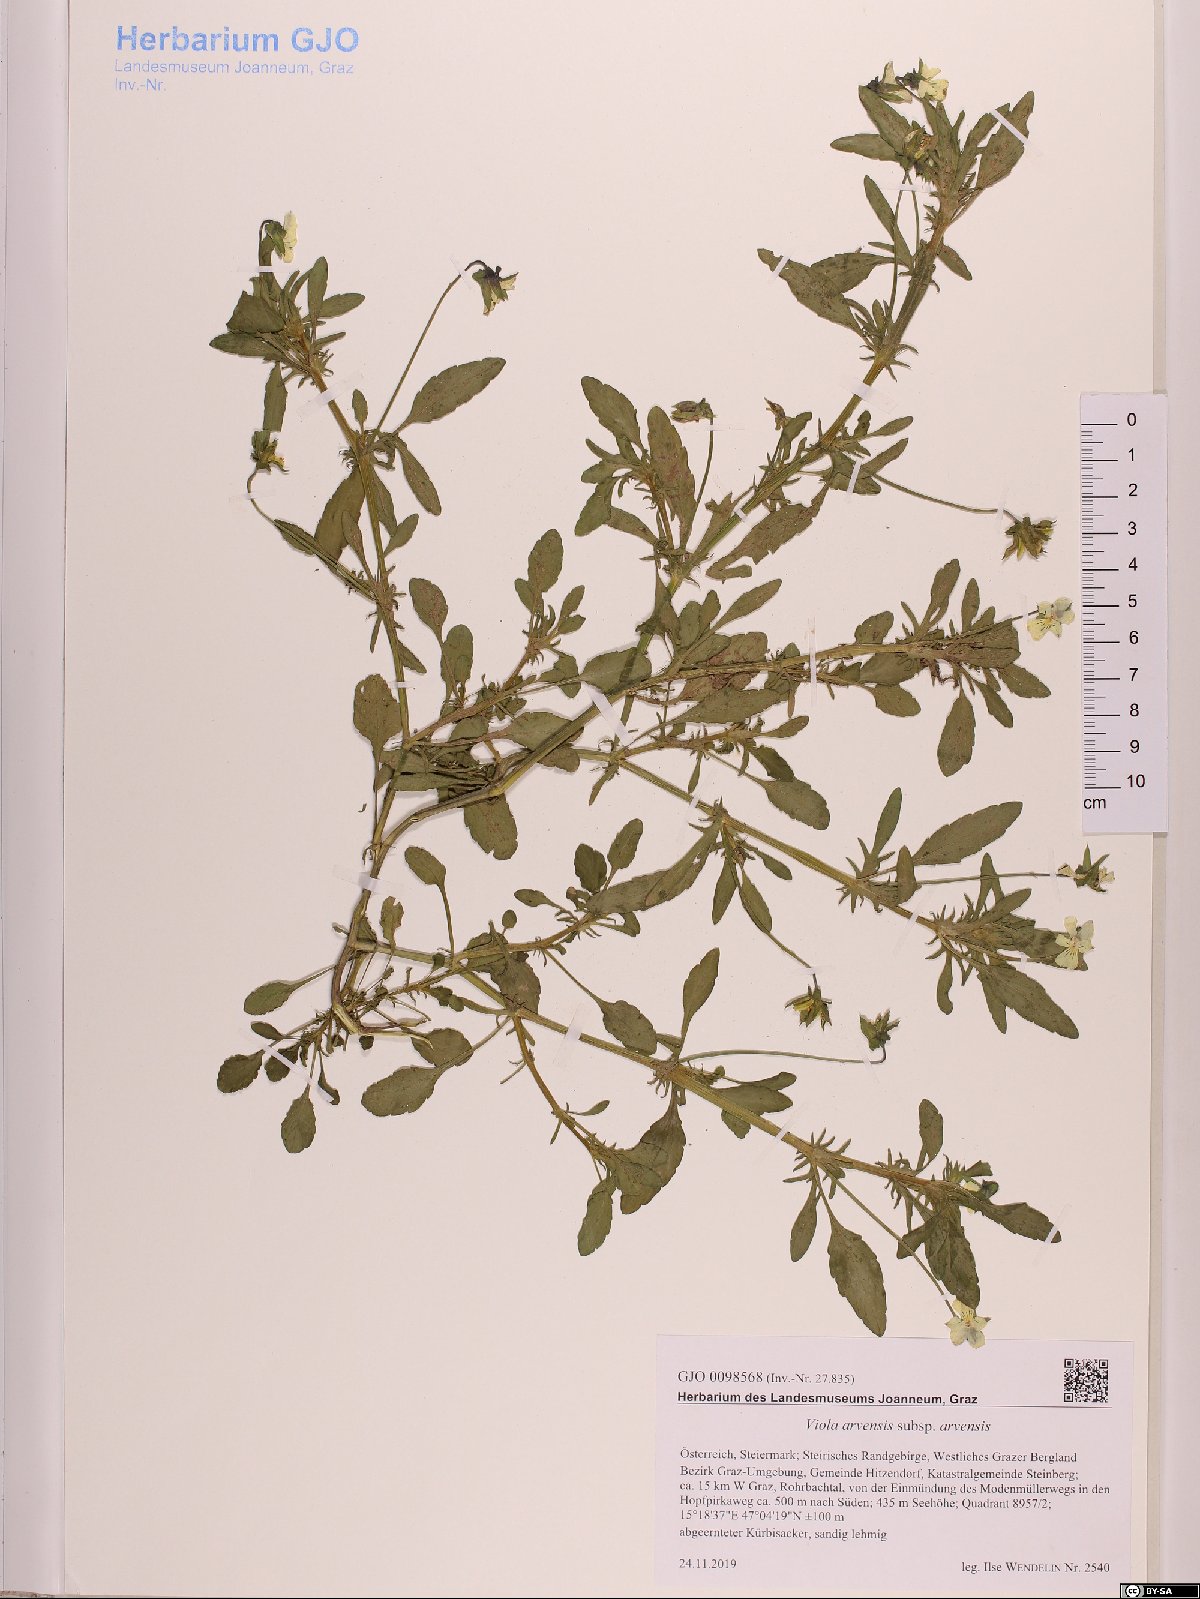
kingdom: Plantae
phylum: Tracheophyta
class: Magnoliopsida
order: Malpighiales
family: Violaceae
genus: Viola
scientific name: Viola arvensis
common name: Field pansy
